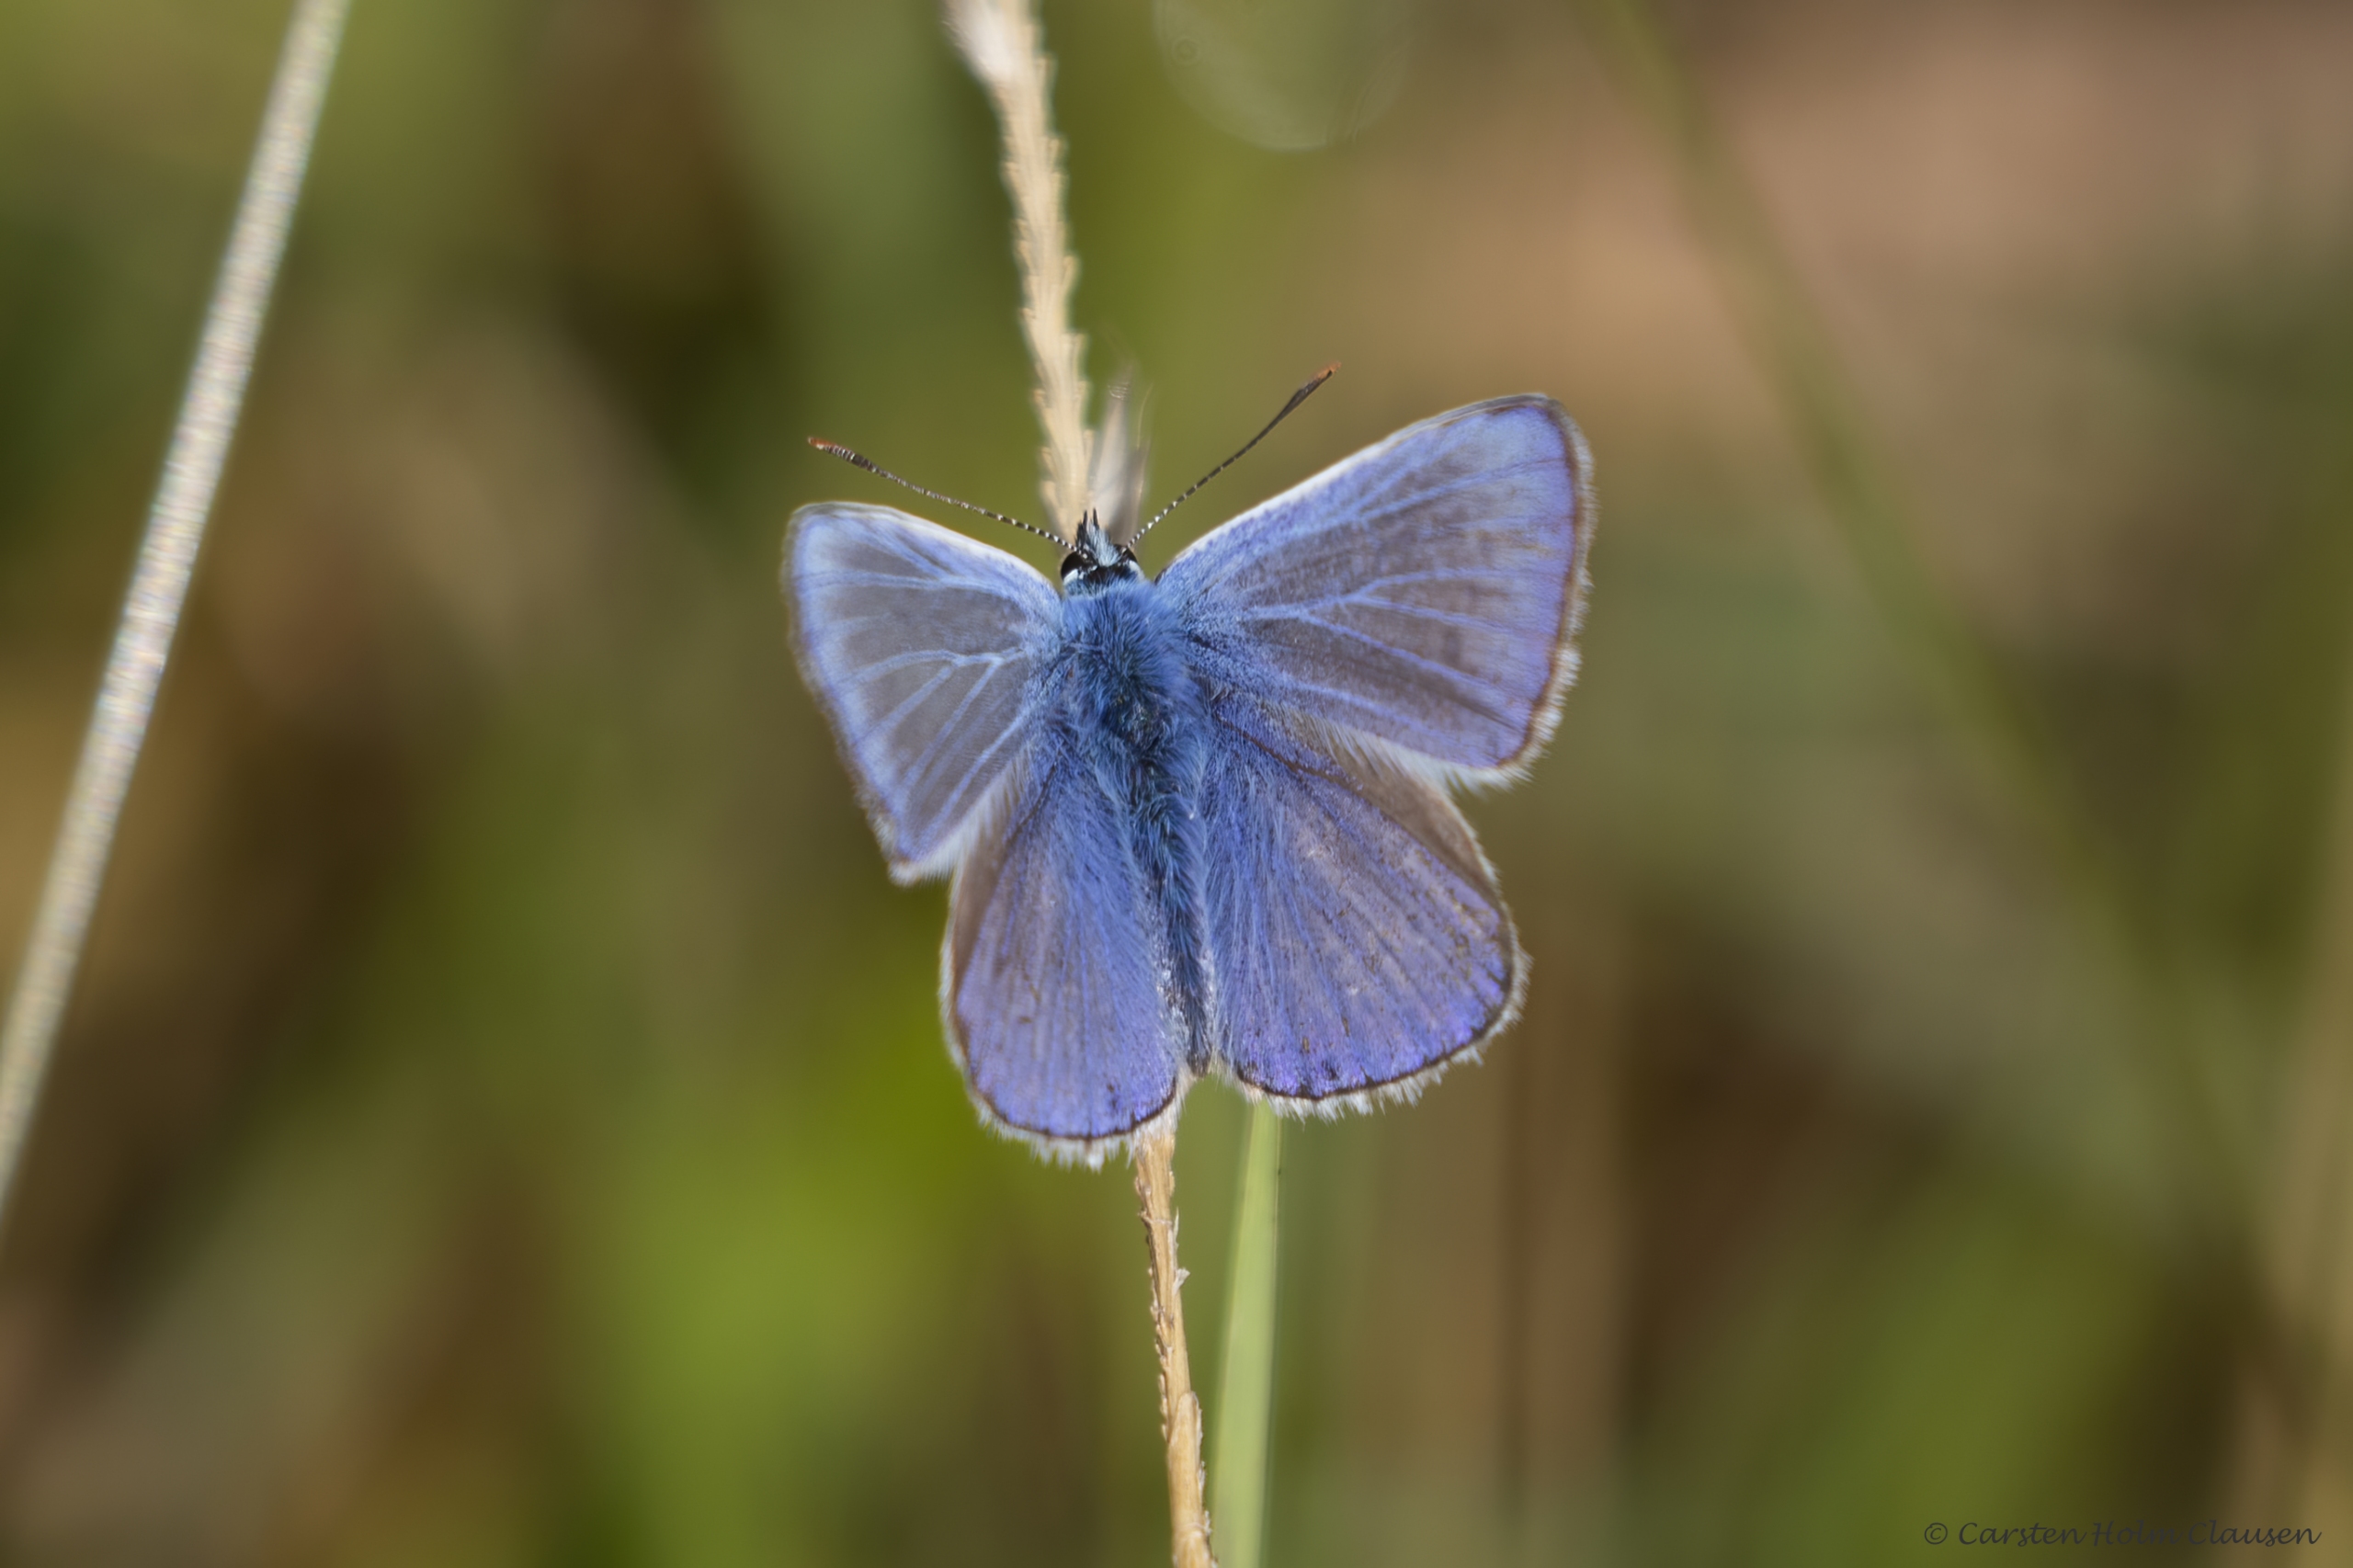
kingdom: Animalia
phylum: Arthropoda
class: Insecta
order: Lepidoptera
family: Lycaenidae
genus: Polyommatus
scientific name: Polyommatus icarus
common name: Almindelig blåfugl
